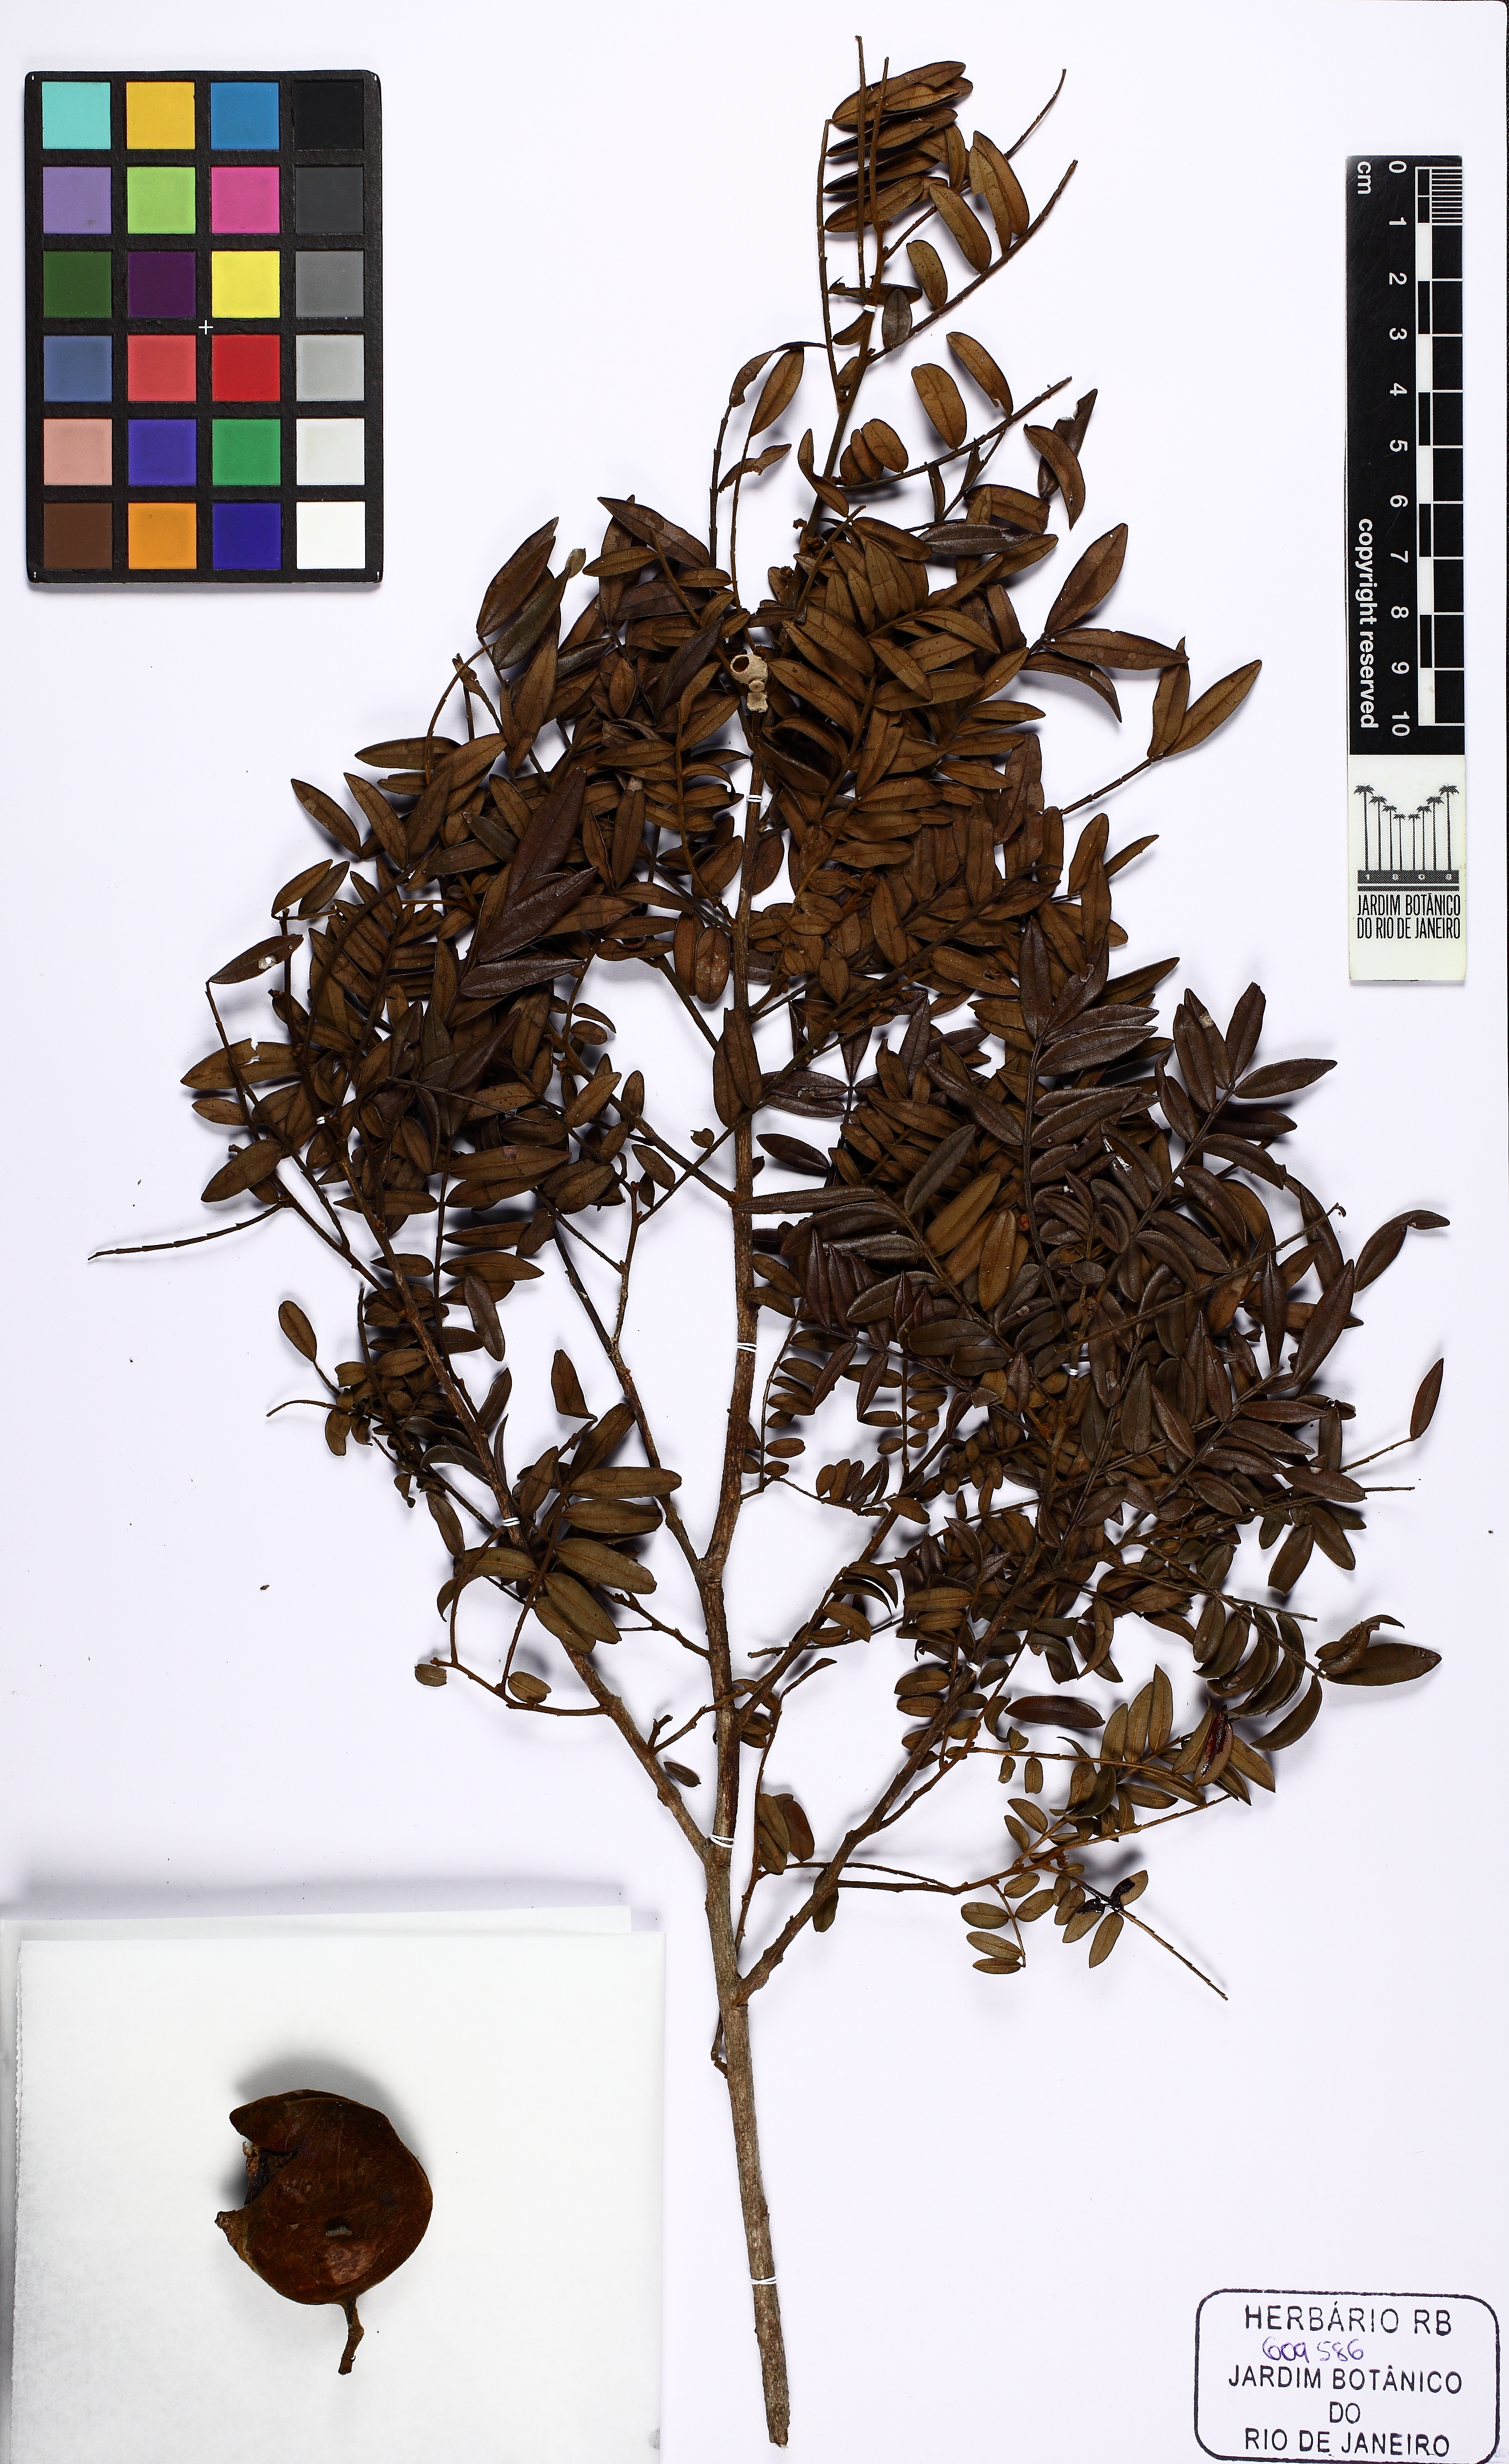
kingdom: Plantae
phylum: Tracheophyta
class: Magnoliopsida
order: Fabales
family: Fabaceae
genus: Swartzia
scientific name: Swartzia linharensis
